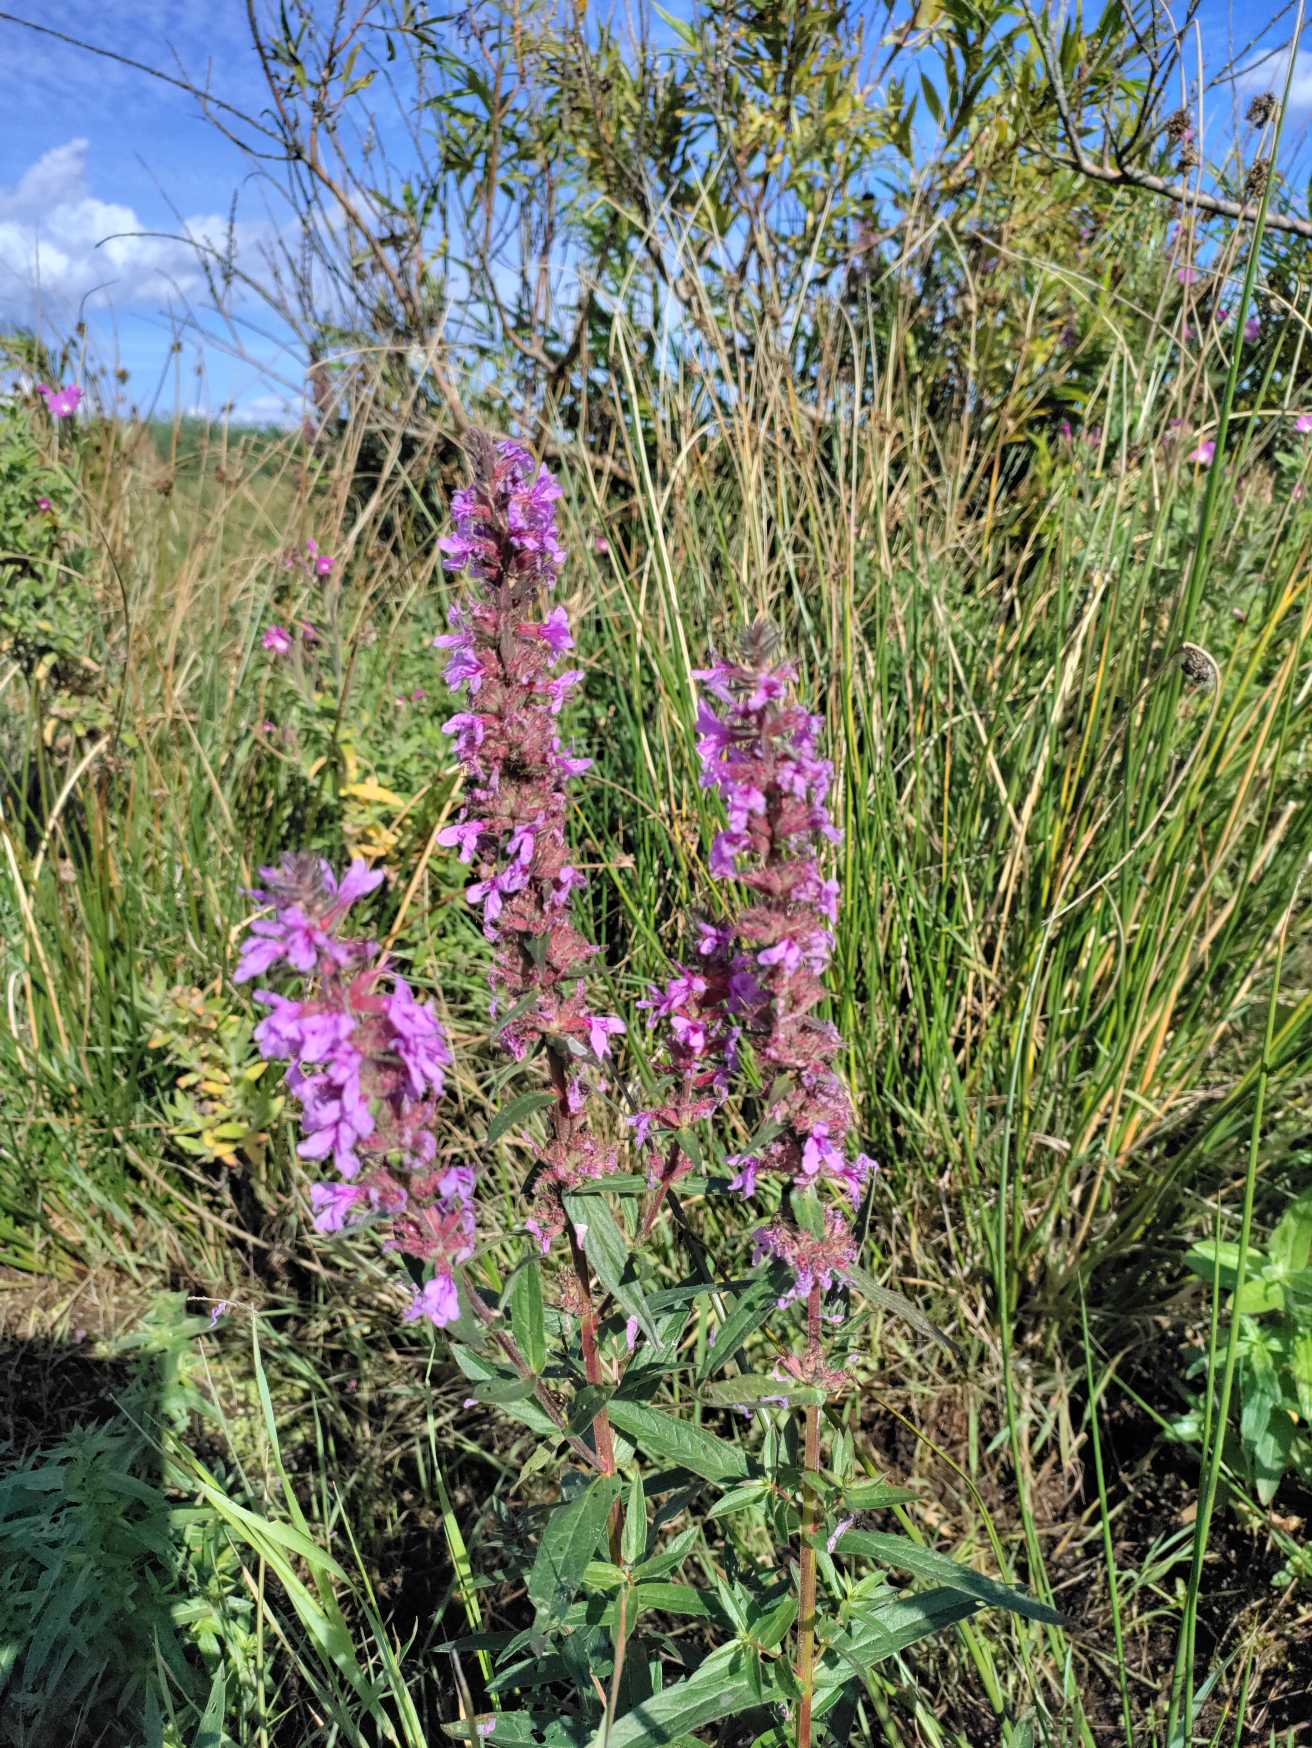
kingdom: Plantae
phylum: Tracheophyta
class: Magnoliopsida
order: Myrtales
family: Lythraceae
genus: Lythrum
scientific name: Lythrum salicaria
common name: Kattehale
